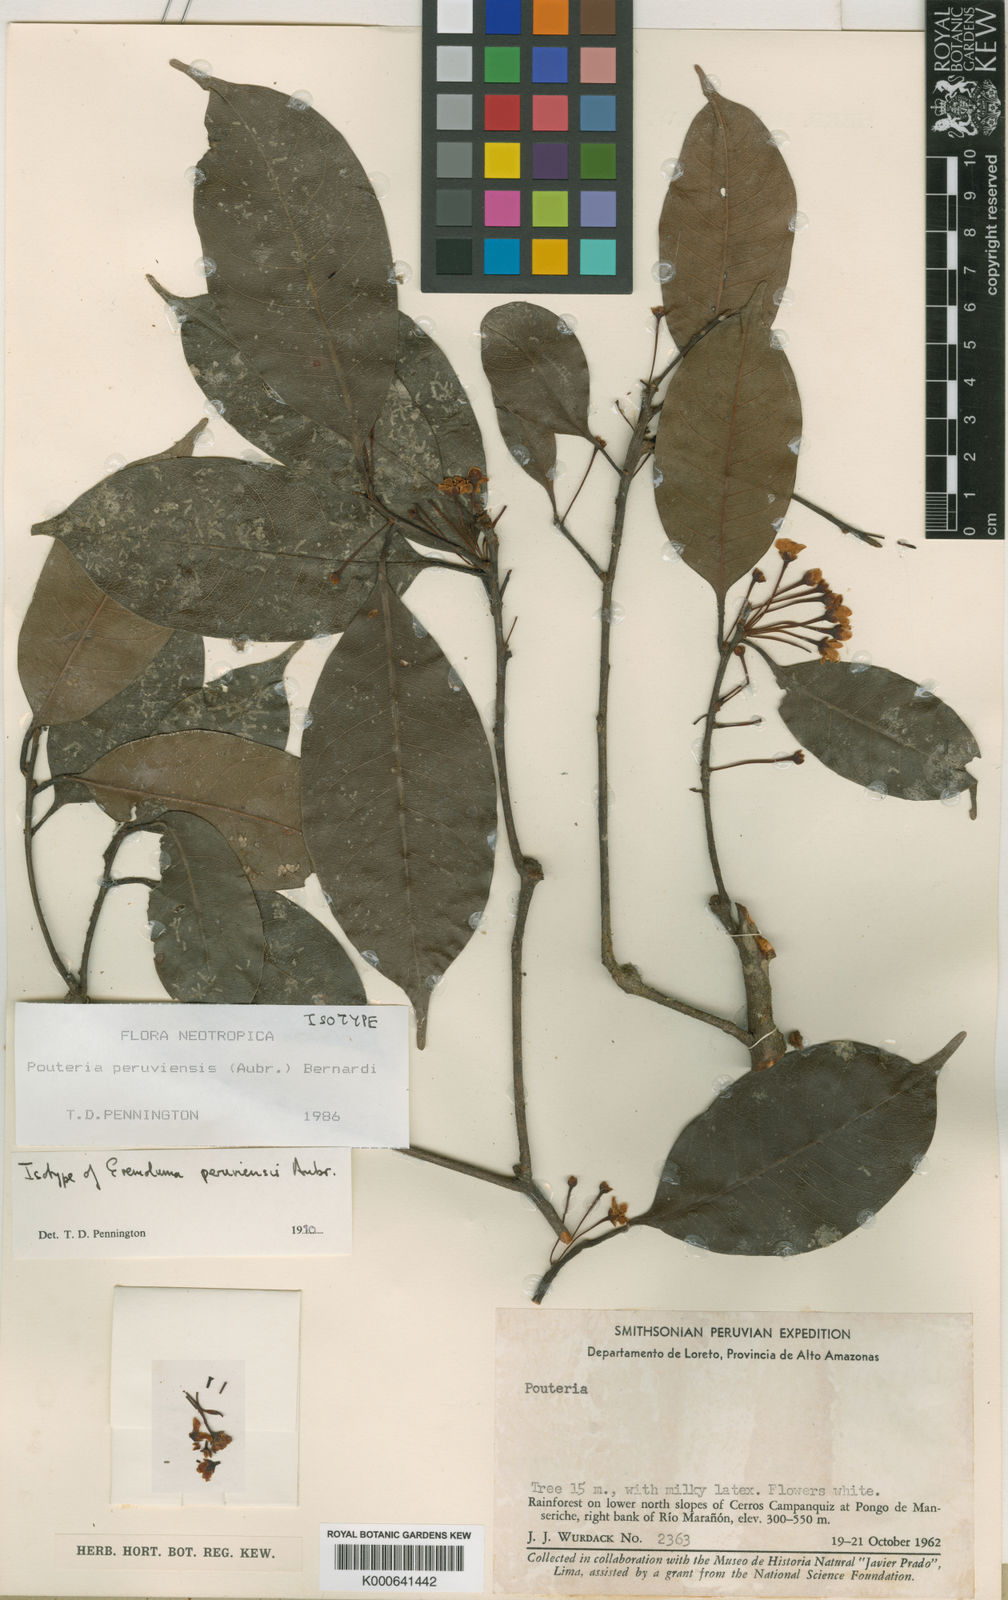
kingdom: Plantae
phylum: Tracheophyta
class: Magnoliopsida
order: Ericales
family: Sapotaceae
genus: Pouteria
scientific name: Pouteria
